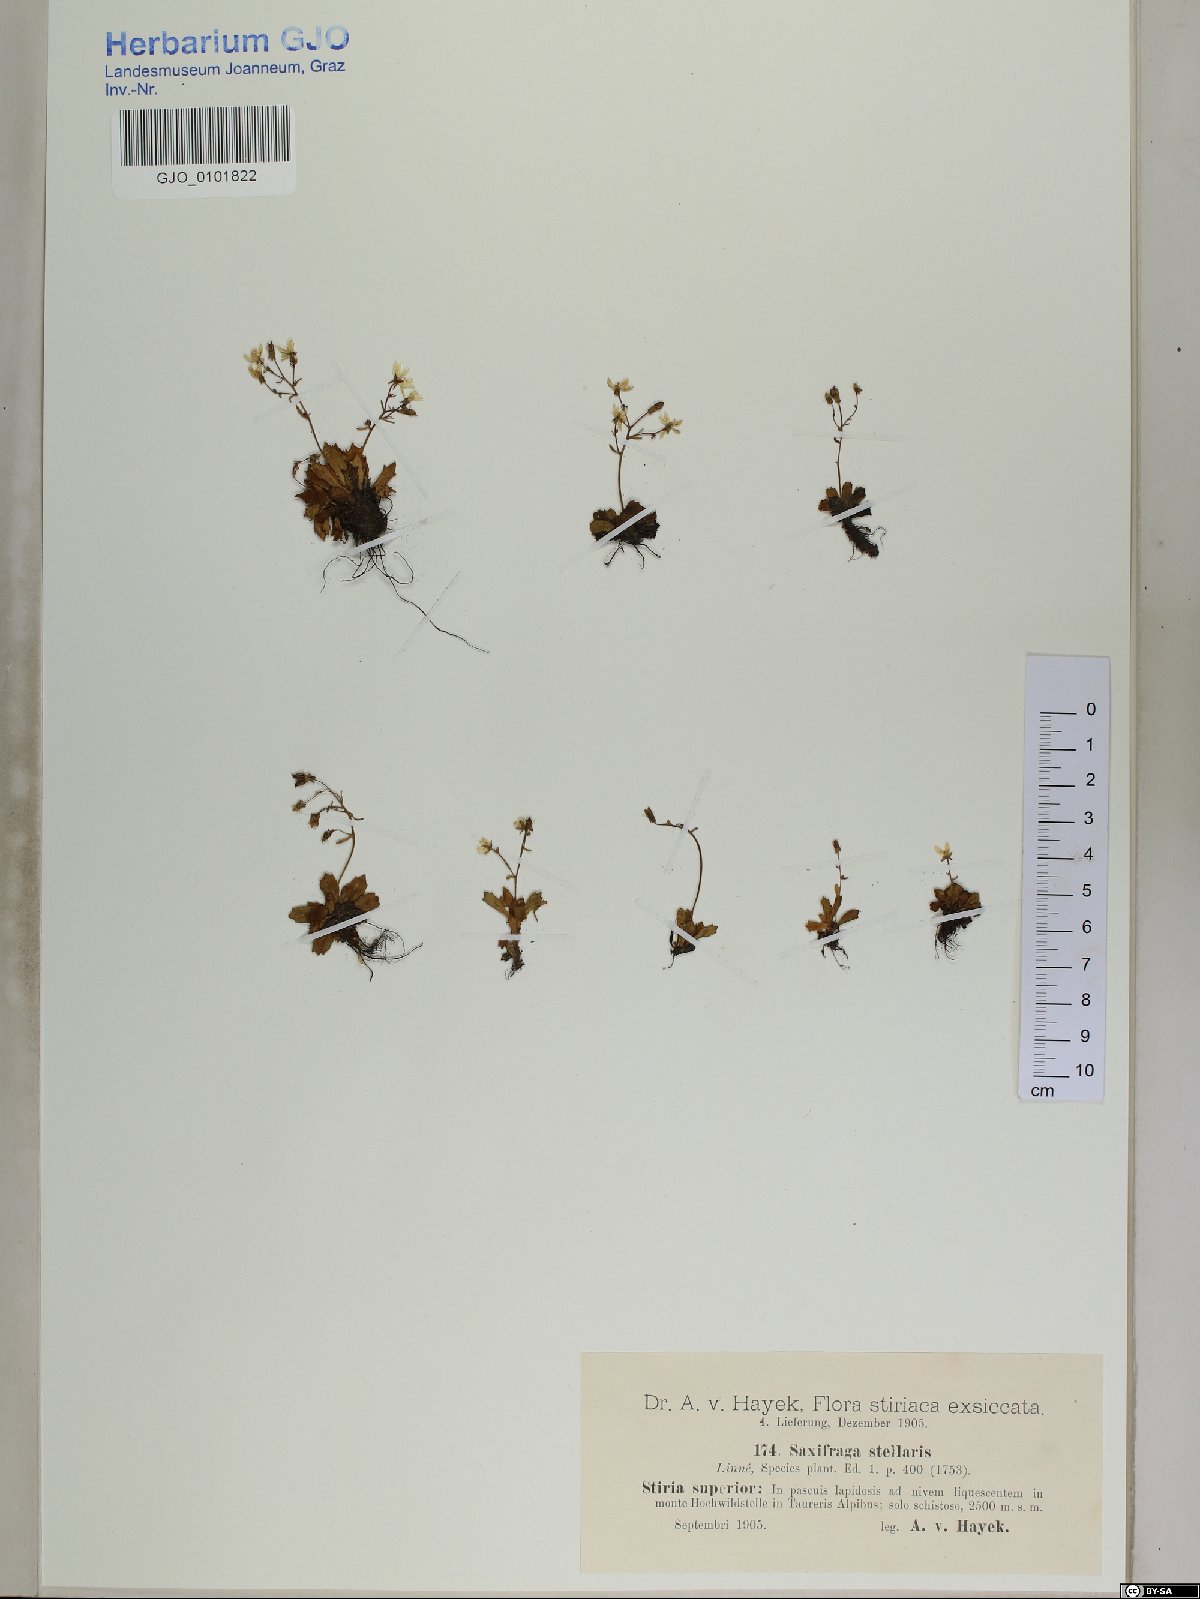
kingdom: Plantae
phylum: Tracheophyta
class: Magnoliopsida
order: Saxifragales
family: Saxifragaceae
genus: Micranthes
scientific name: Micranthes stellaris
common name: Starry saxifrage
